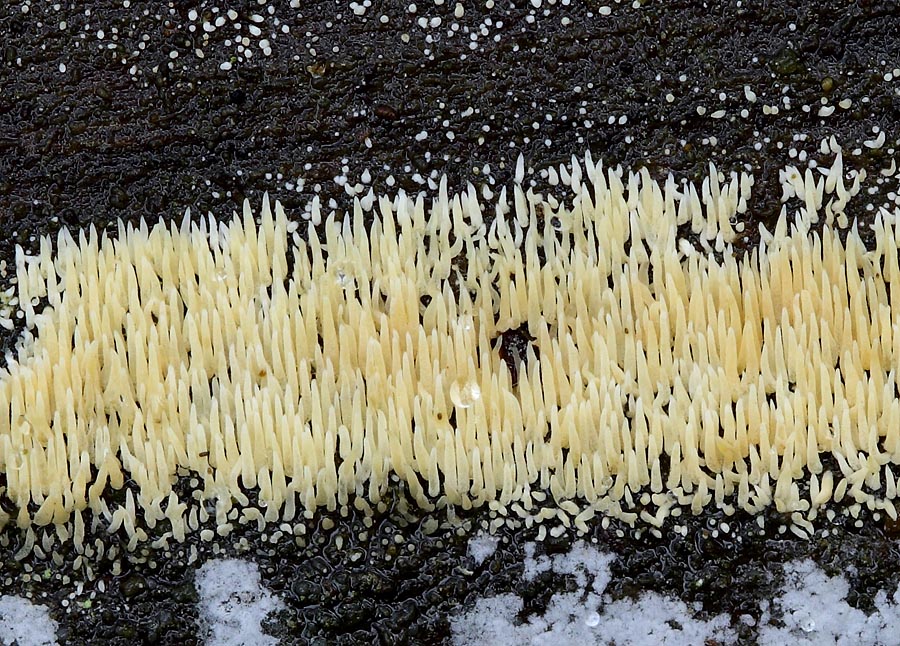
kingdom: Fungi
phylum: Basidiomycota
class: Agaricomycetes
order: Agaricales
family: Clavariaceae
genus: Mucronella
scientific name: Mucronella flava
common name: gul hængepig
